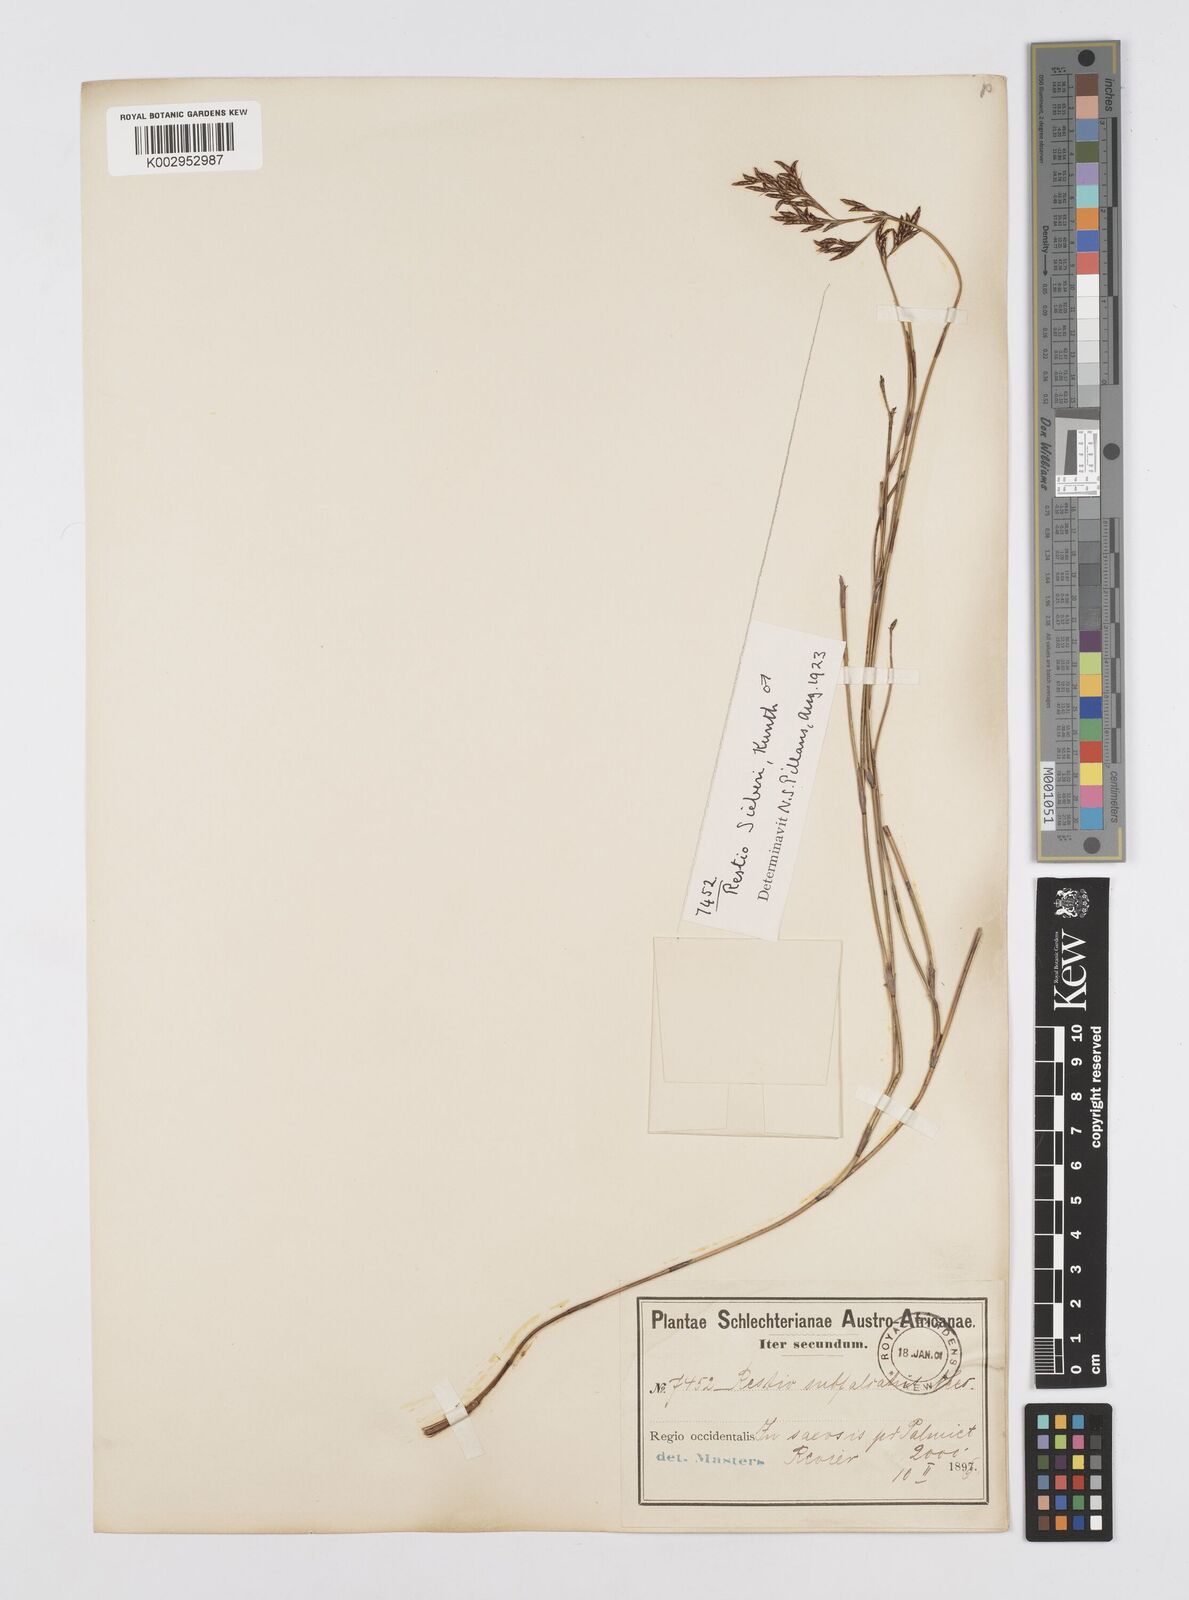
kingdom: Plantae
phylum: Tracheophyta
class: Liliopsida
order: Poales
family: Restionaceae
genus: Restio
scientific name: Restio sieberi
